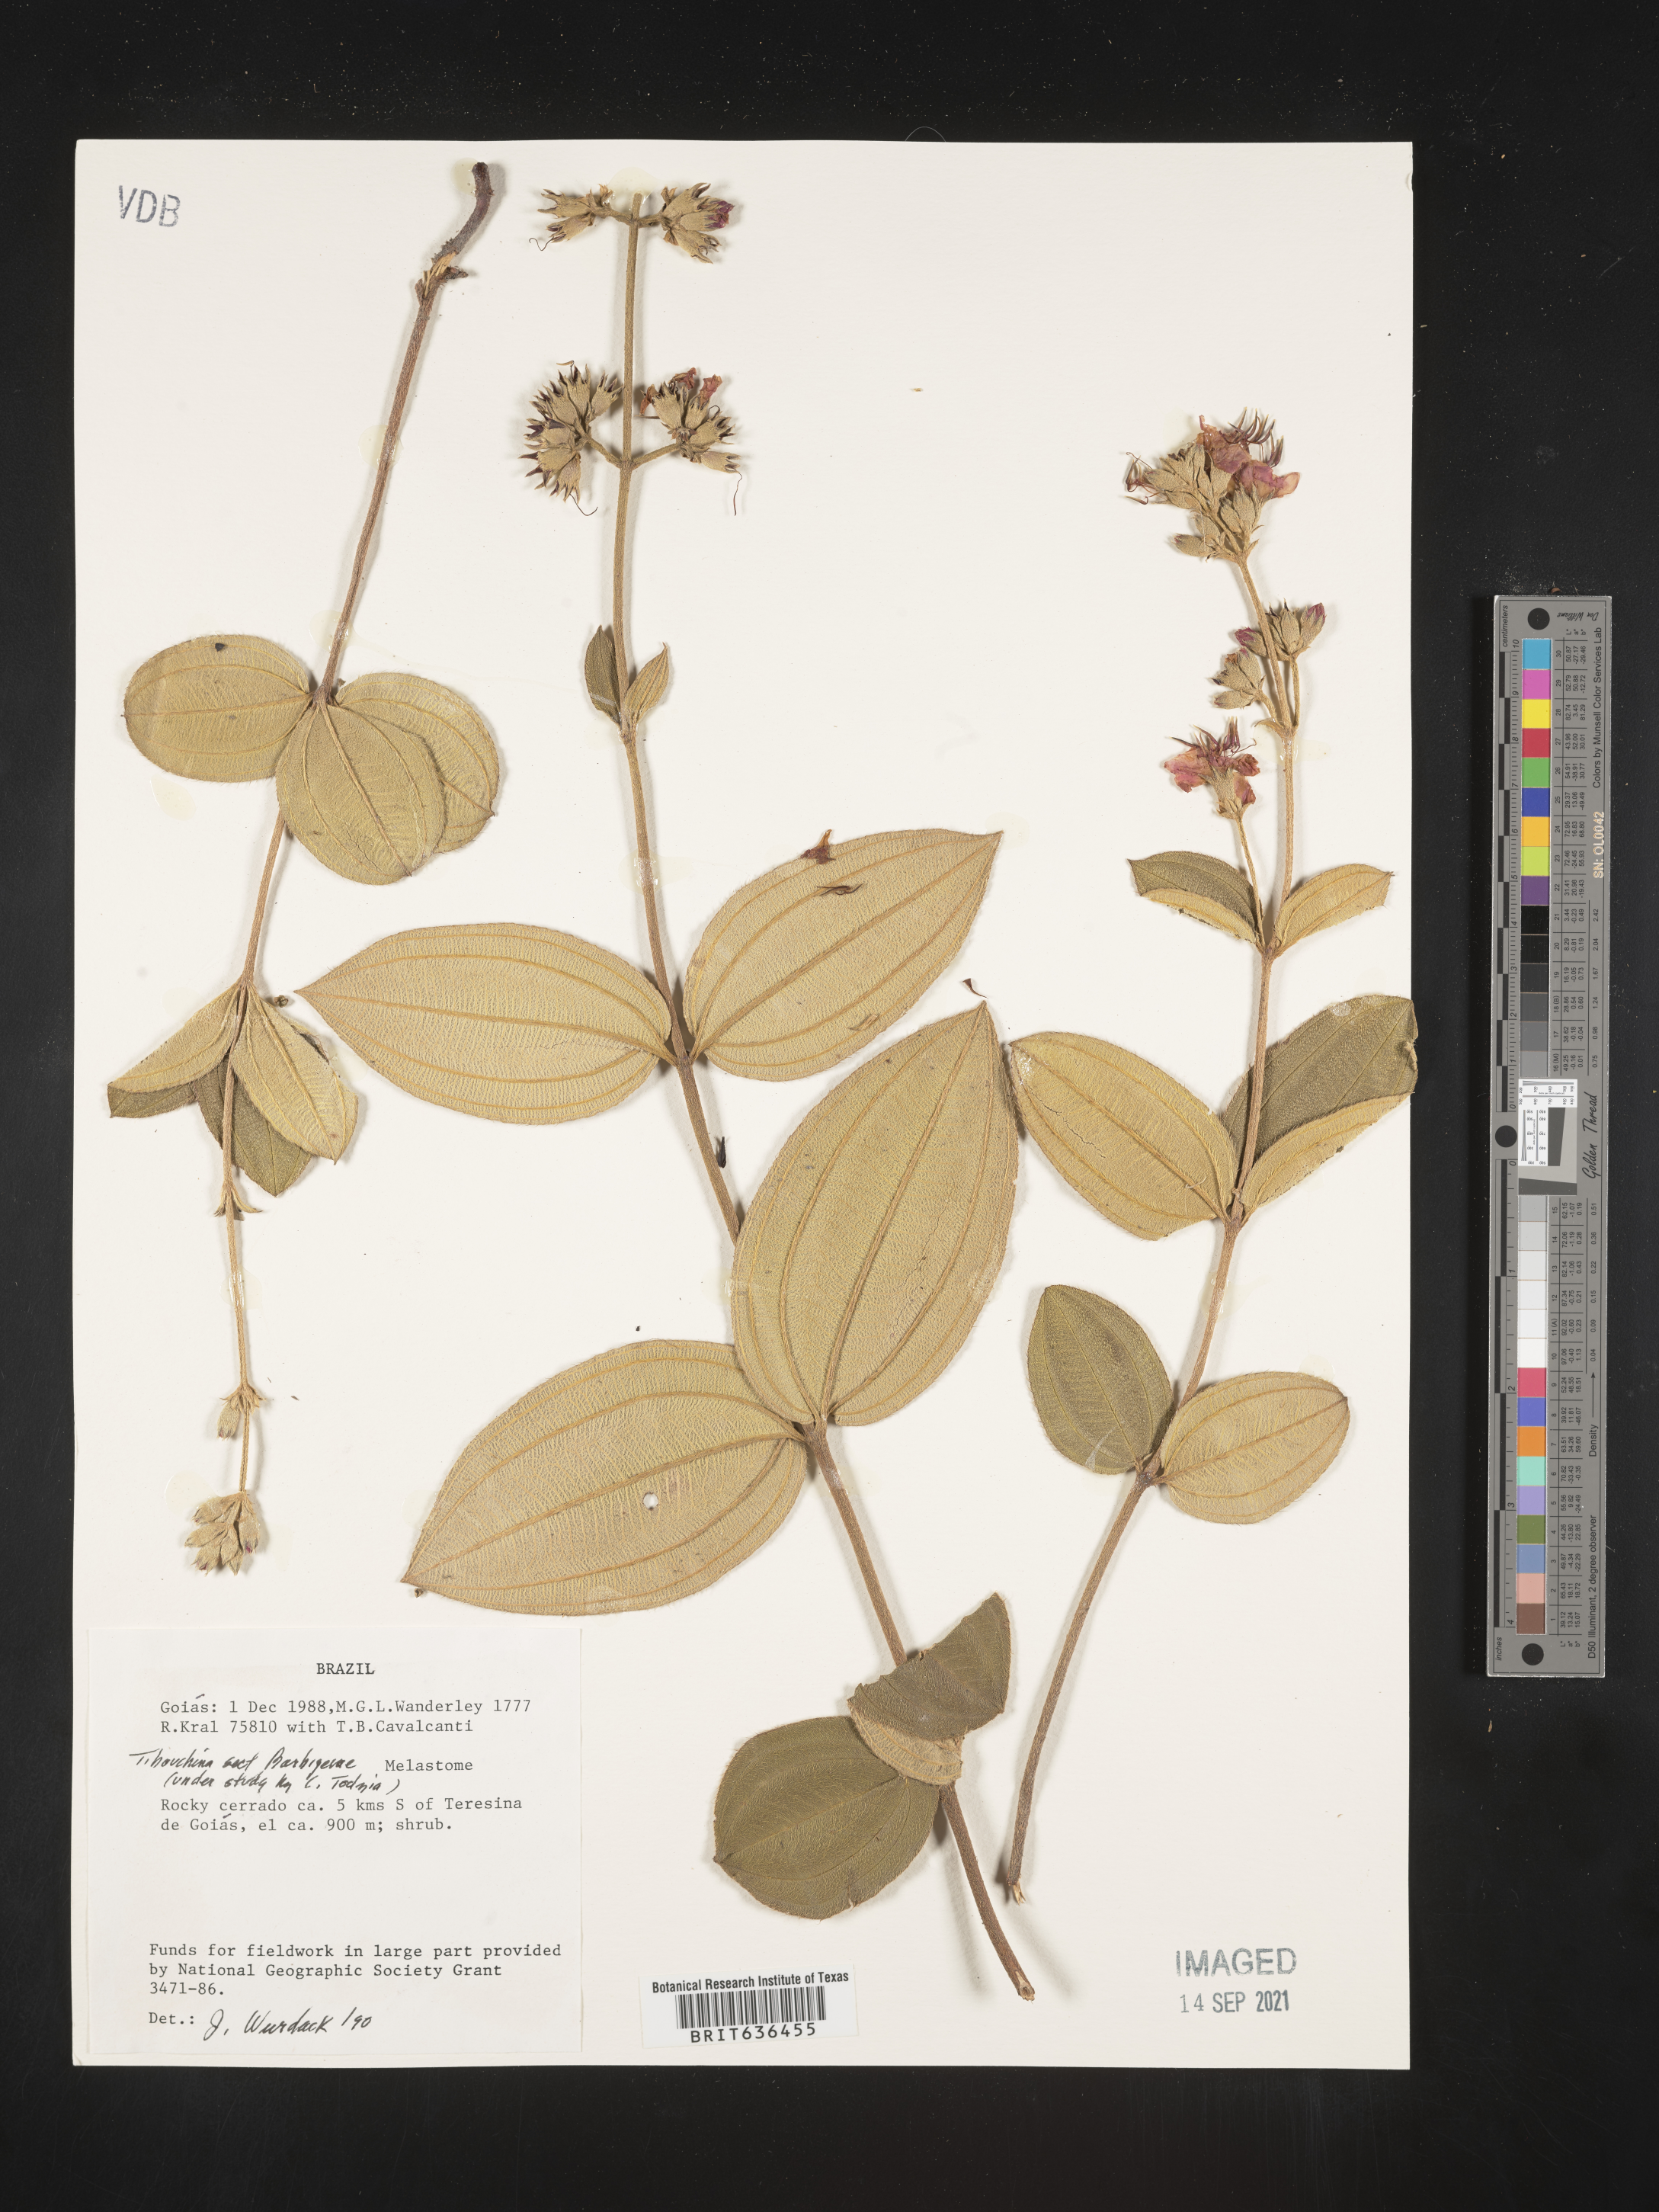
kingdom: Plantae
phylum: Tracheophyta
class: Magnoliopsida
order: Myrtales
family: Melastomataceae
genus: Tibouchina
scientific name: Tibouchina
